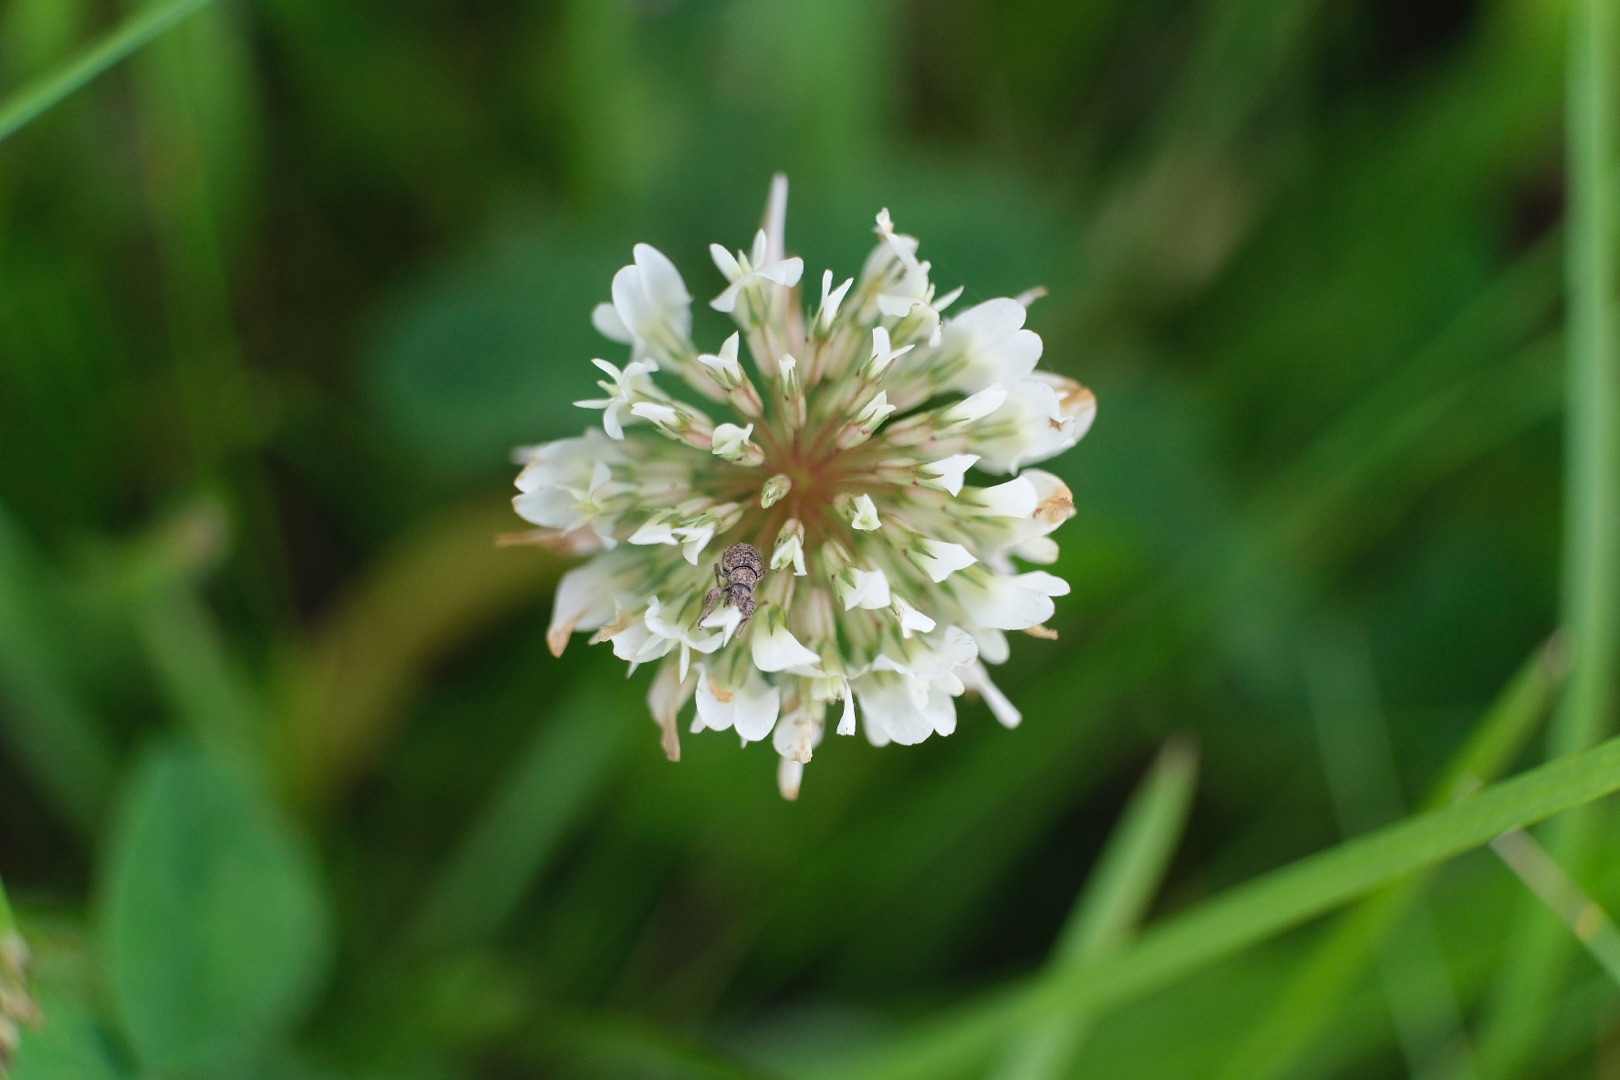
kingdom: Plantae
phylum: Tracheophyta
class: Magnoliopsida
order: Fabales
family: Fabaceae
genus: Trifolium
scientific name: Trifolium repens
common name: Hvid-kløver
